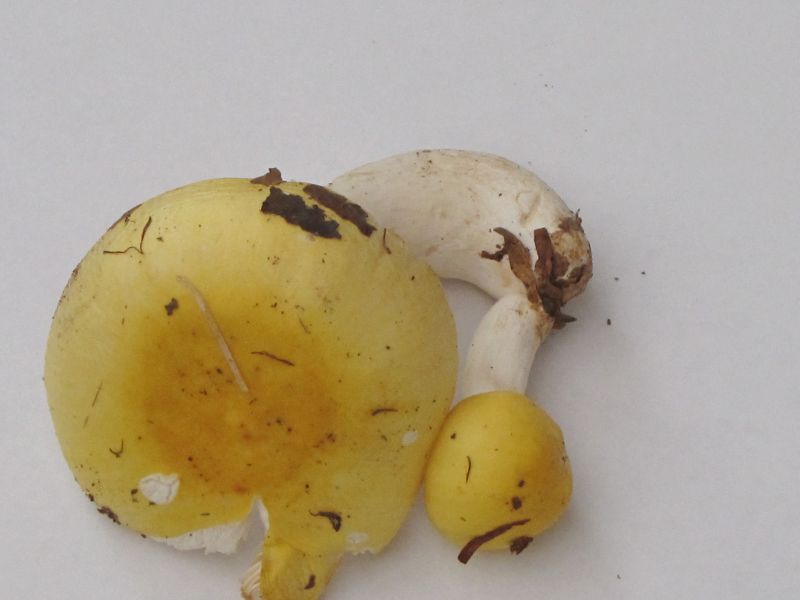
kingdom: Fungi
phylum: Basidiomycota
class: Agaricomycetes
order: Russulales
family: Russulaceae
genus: Russula
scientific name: Russula solaris
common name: sol-skørhat
